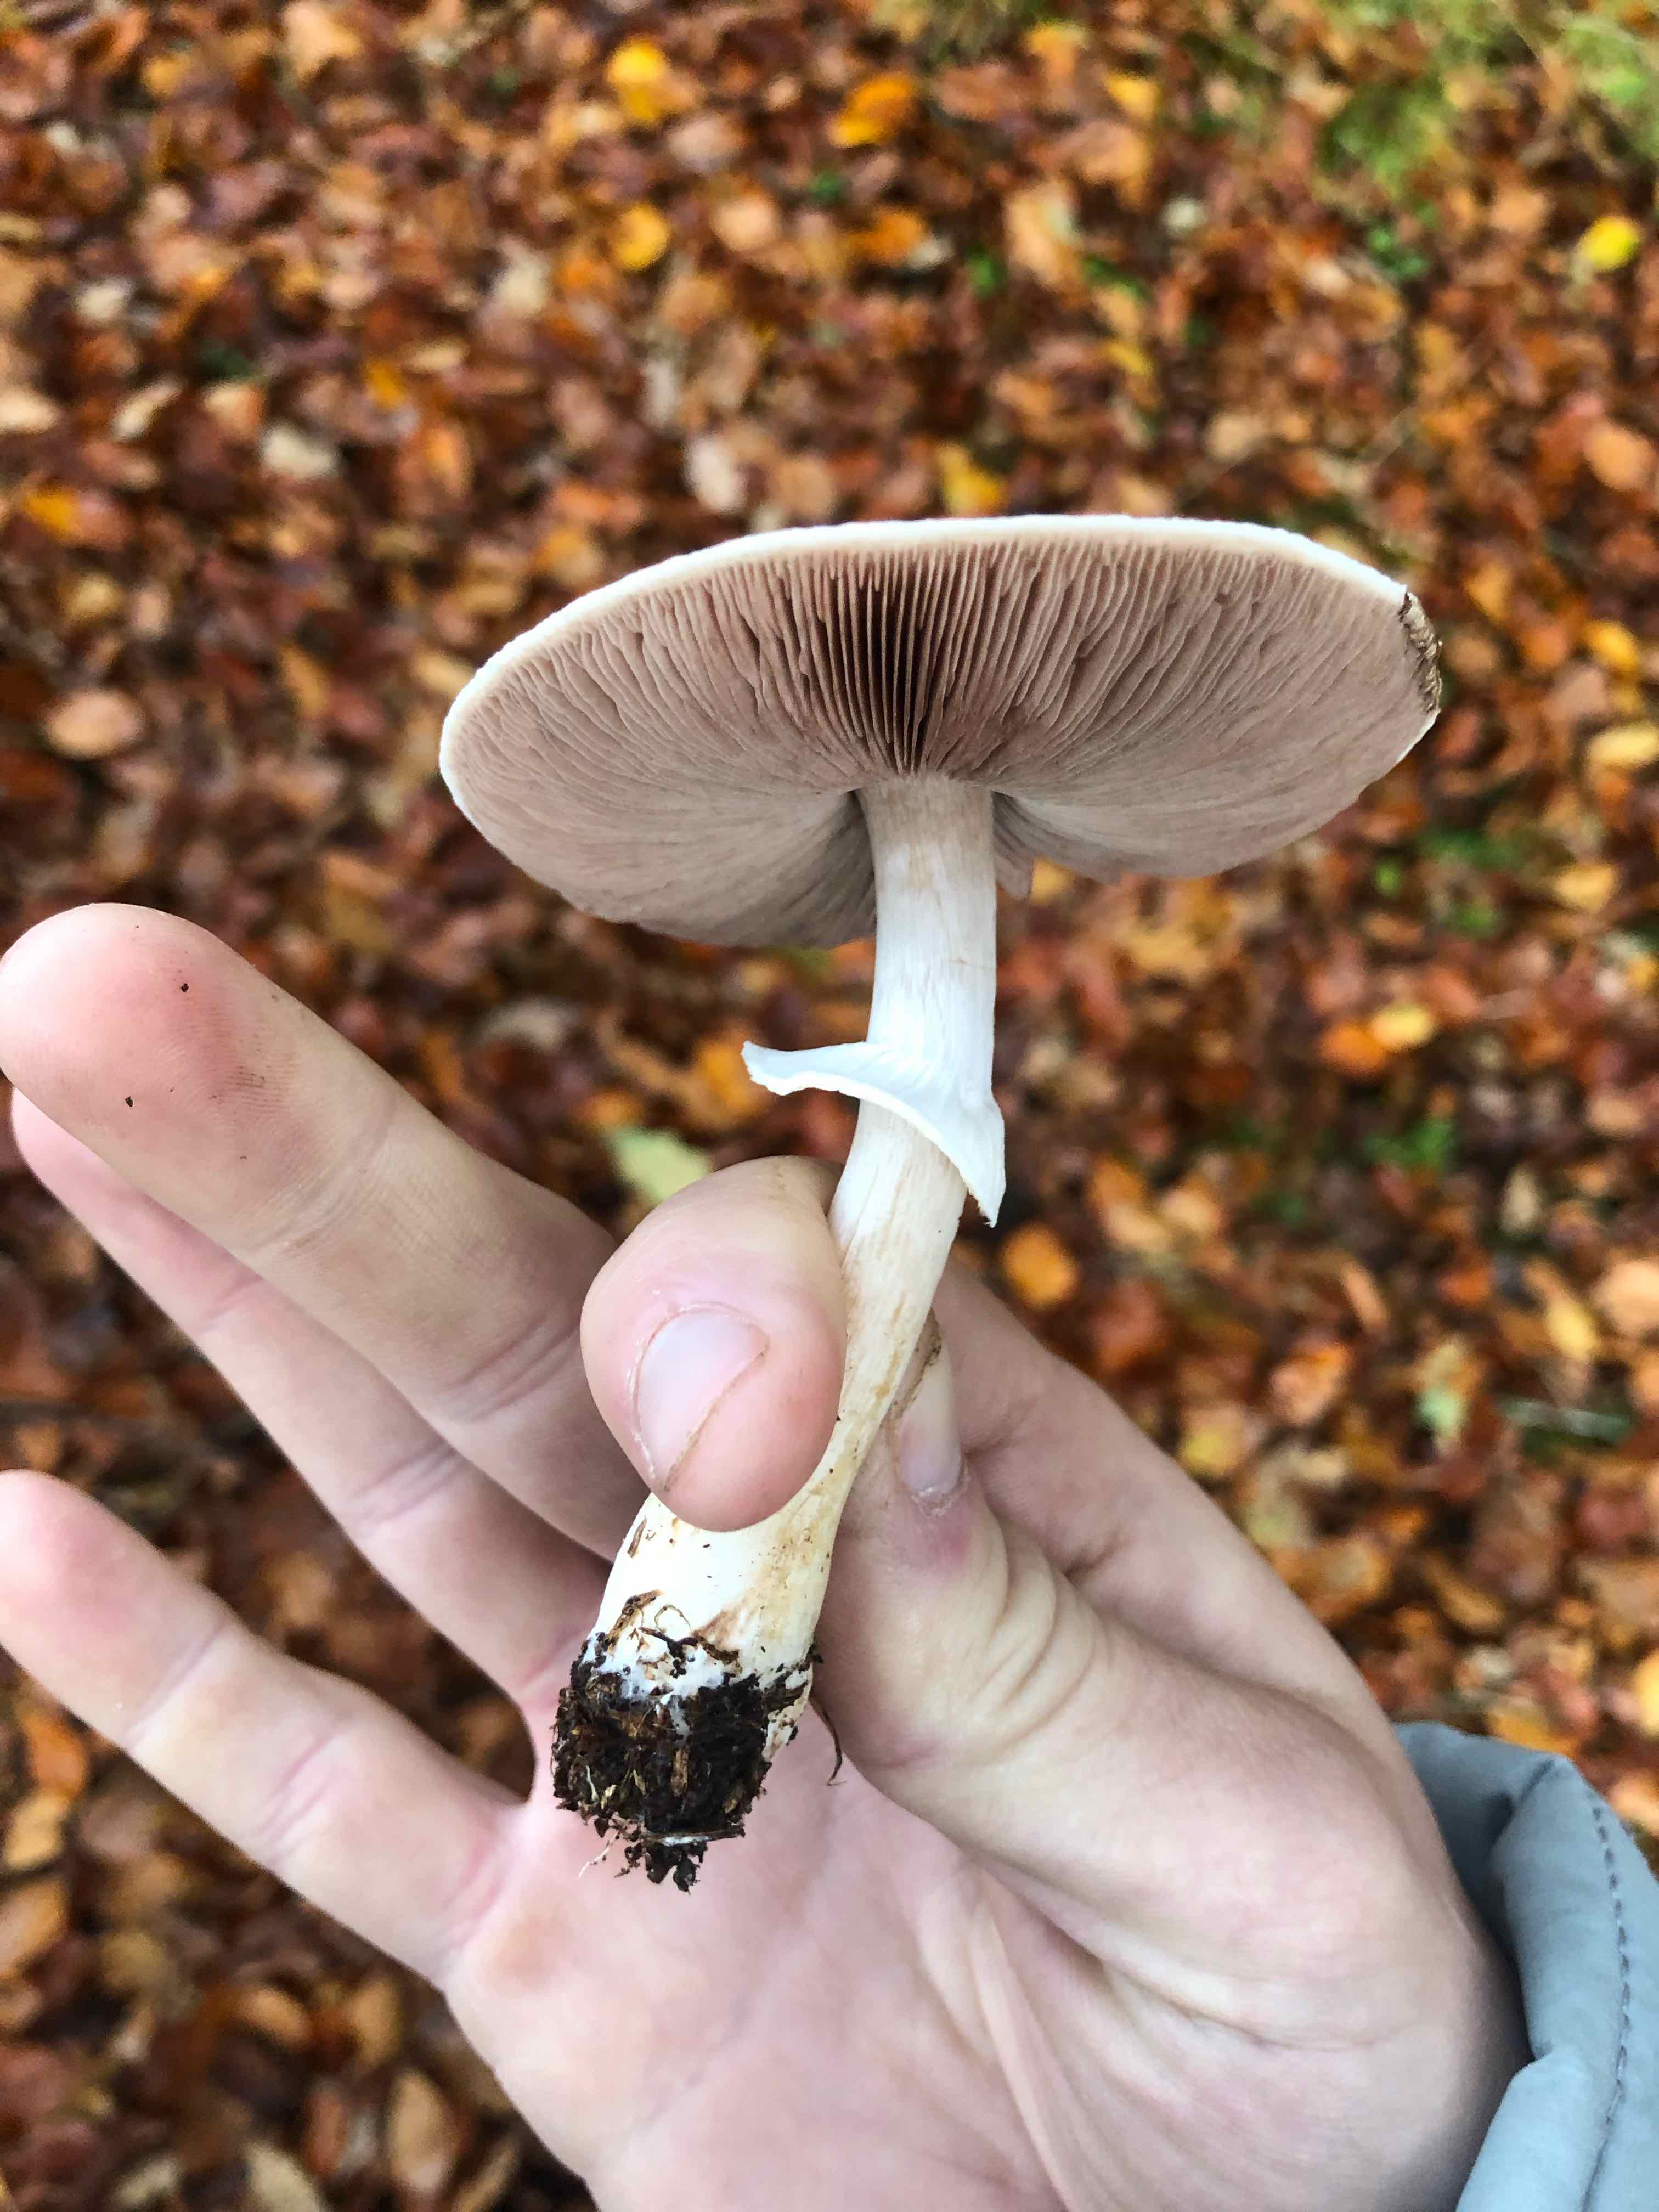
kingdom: Fungi
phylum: Basidiomycota
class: Agaricomycetes
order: Agaricales
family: Agaricaceae
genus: Agaricus
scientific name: Agaricus impudicus
